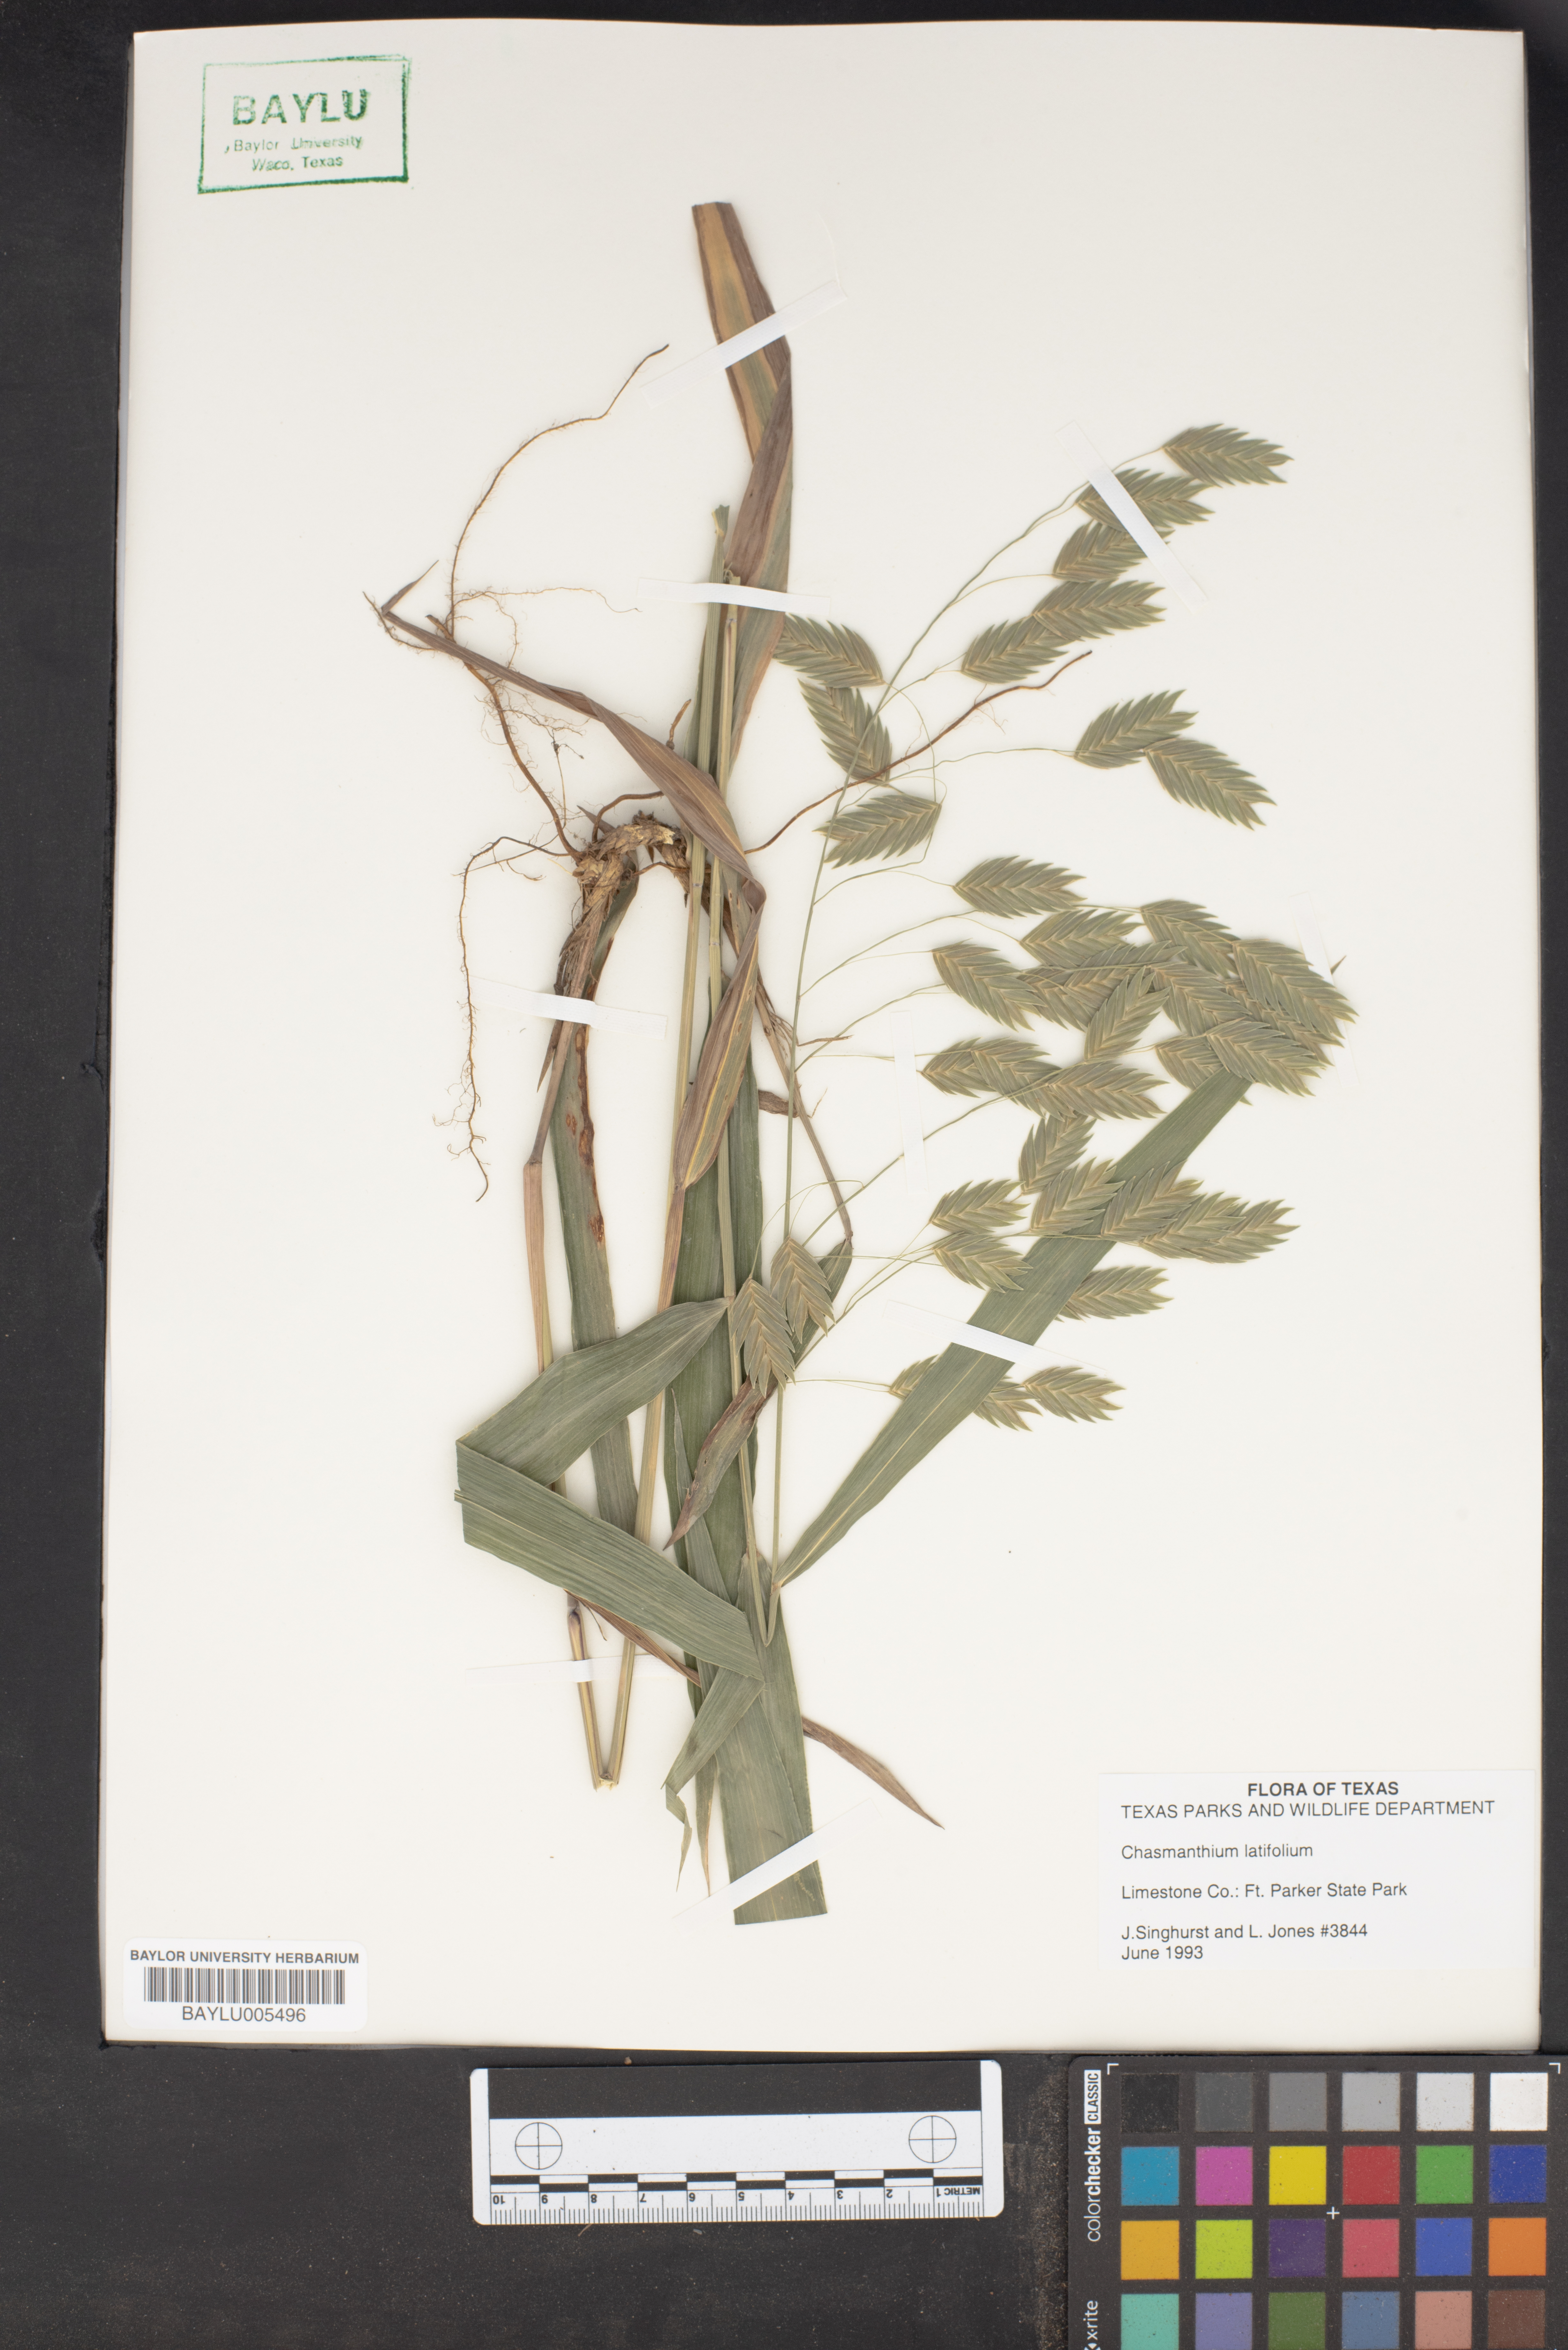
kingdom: Plantae
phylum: Tracheophyta
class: Liliopsida
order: Poales
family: Poaceae
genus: Chasmanthium
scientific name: Chasmanthium latifolium
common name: Broad-leaved chasmanthium
